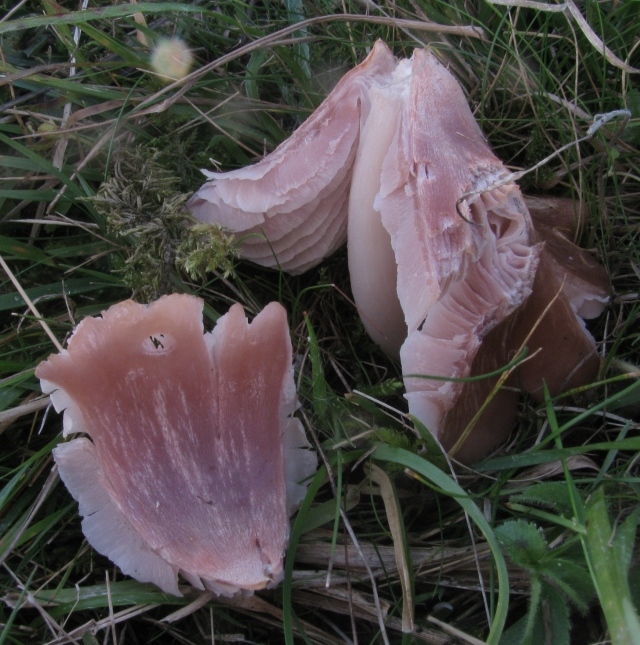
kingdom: Fungi
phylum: Basidiomycota
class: Agaricomycetes
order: Agaricales
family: Hygrophoraceae
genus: Porpolomopsis
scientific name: Porpolomopsis calyptriformis
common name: rosenrød vokshat
